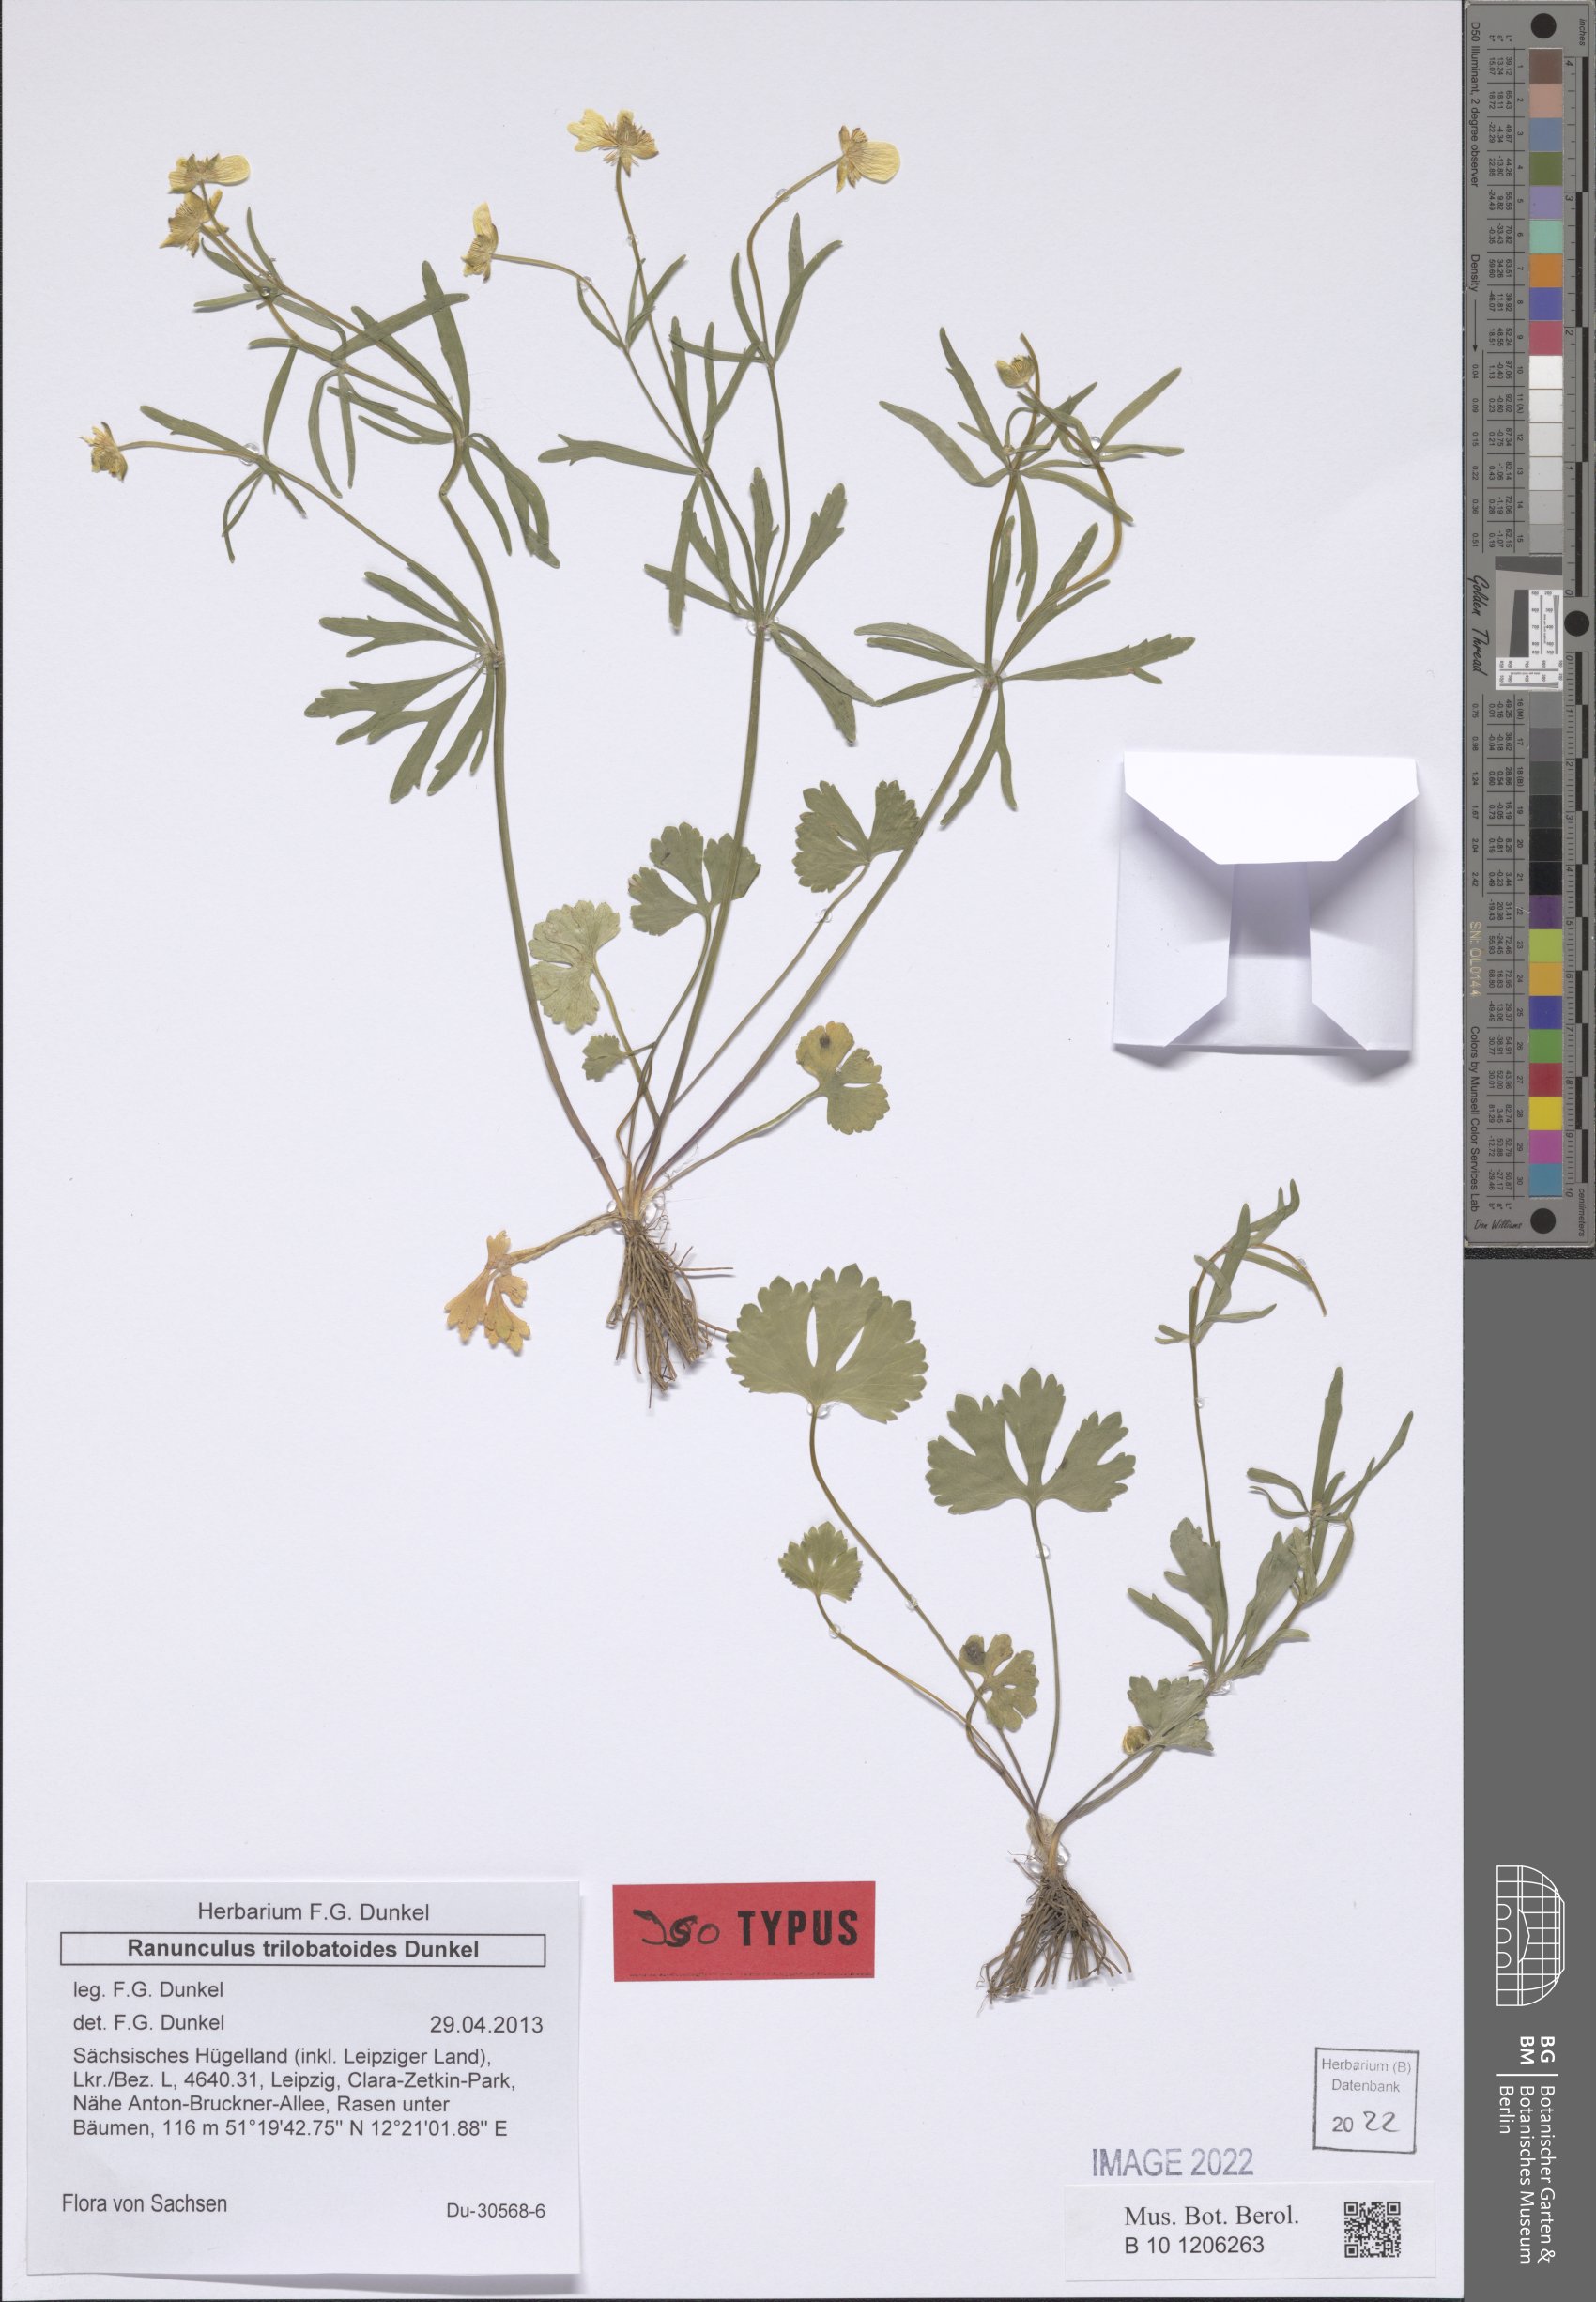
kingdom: Plantae
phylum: Tracheophyta
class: Magnoliopsida
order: Ranunculales
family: Ranunculaceae
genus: Ranunculus
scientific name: Ranunculus trilobatoides
